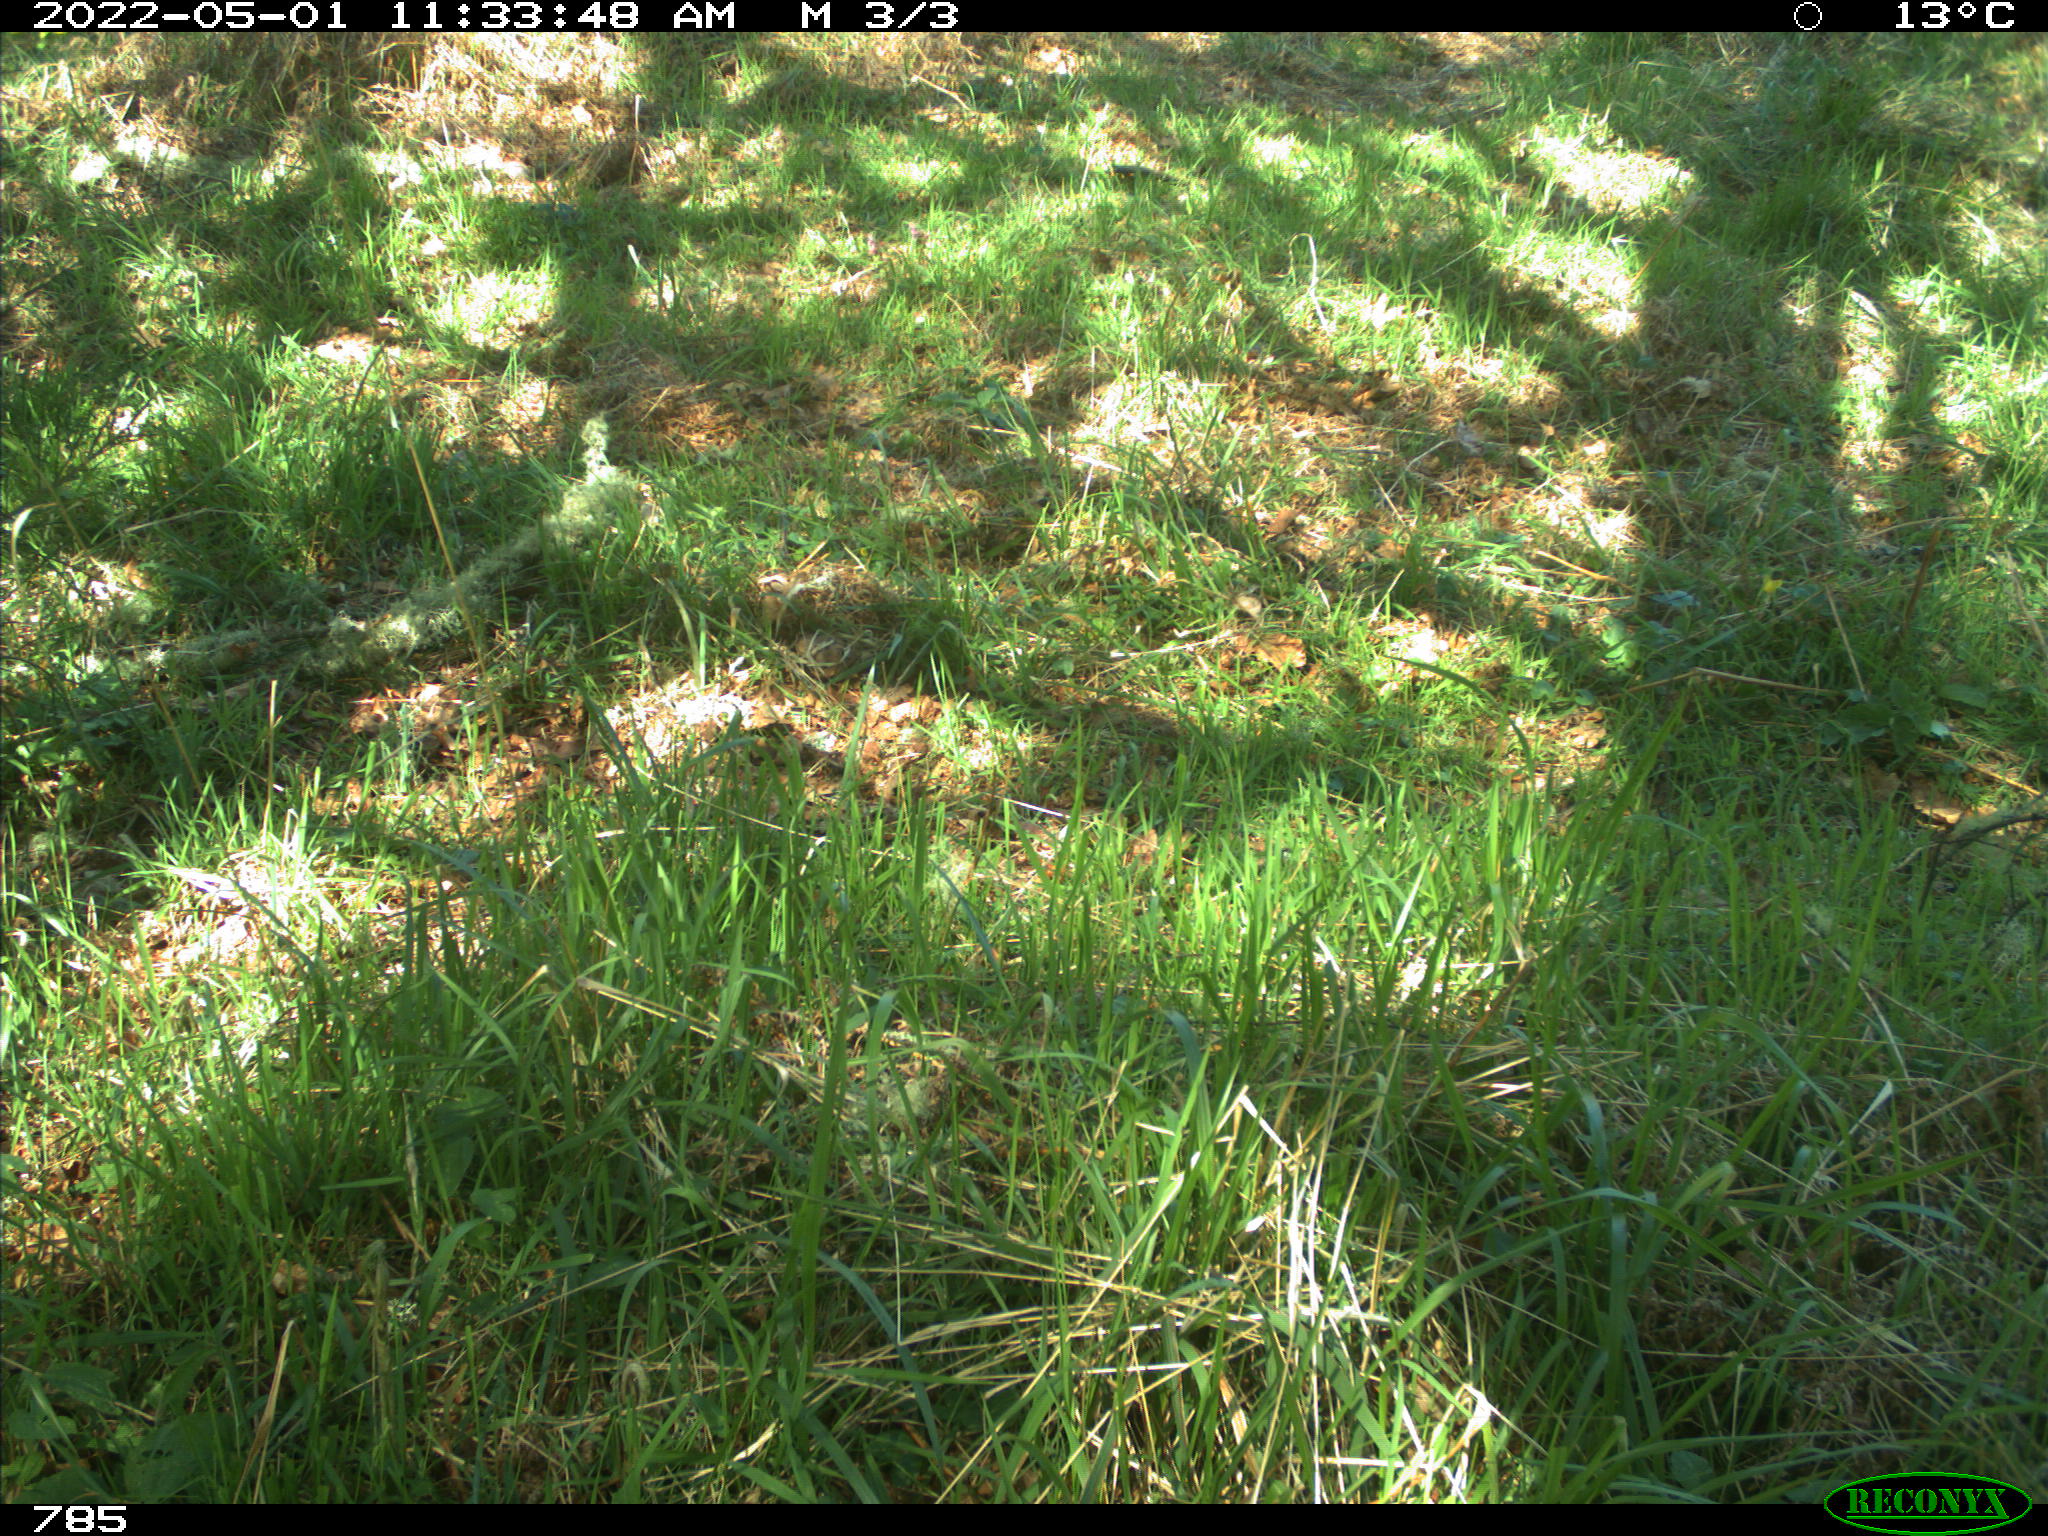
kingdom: Animalia
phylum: Chordata
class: Mammalia
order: Perissodactyla
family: Equidae
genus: Equus
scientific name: Equus caballus
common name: Horse
